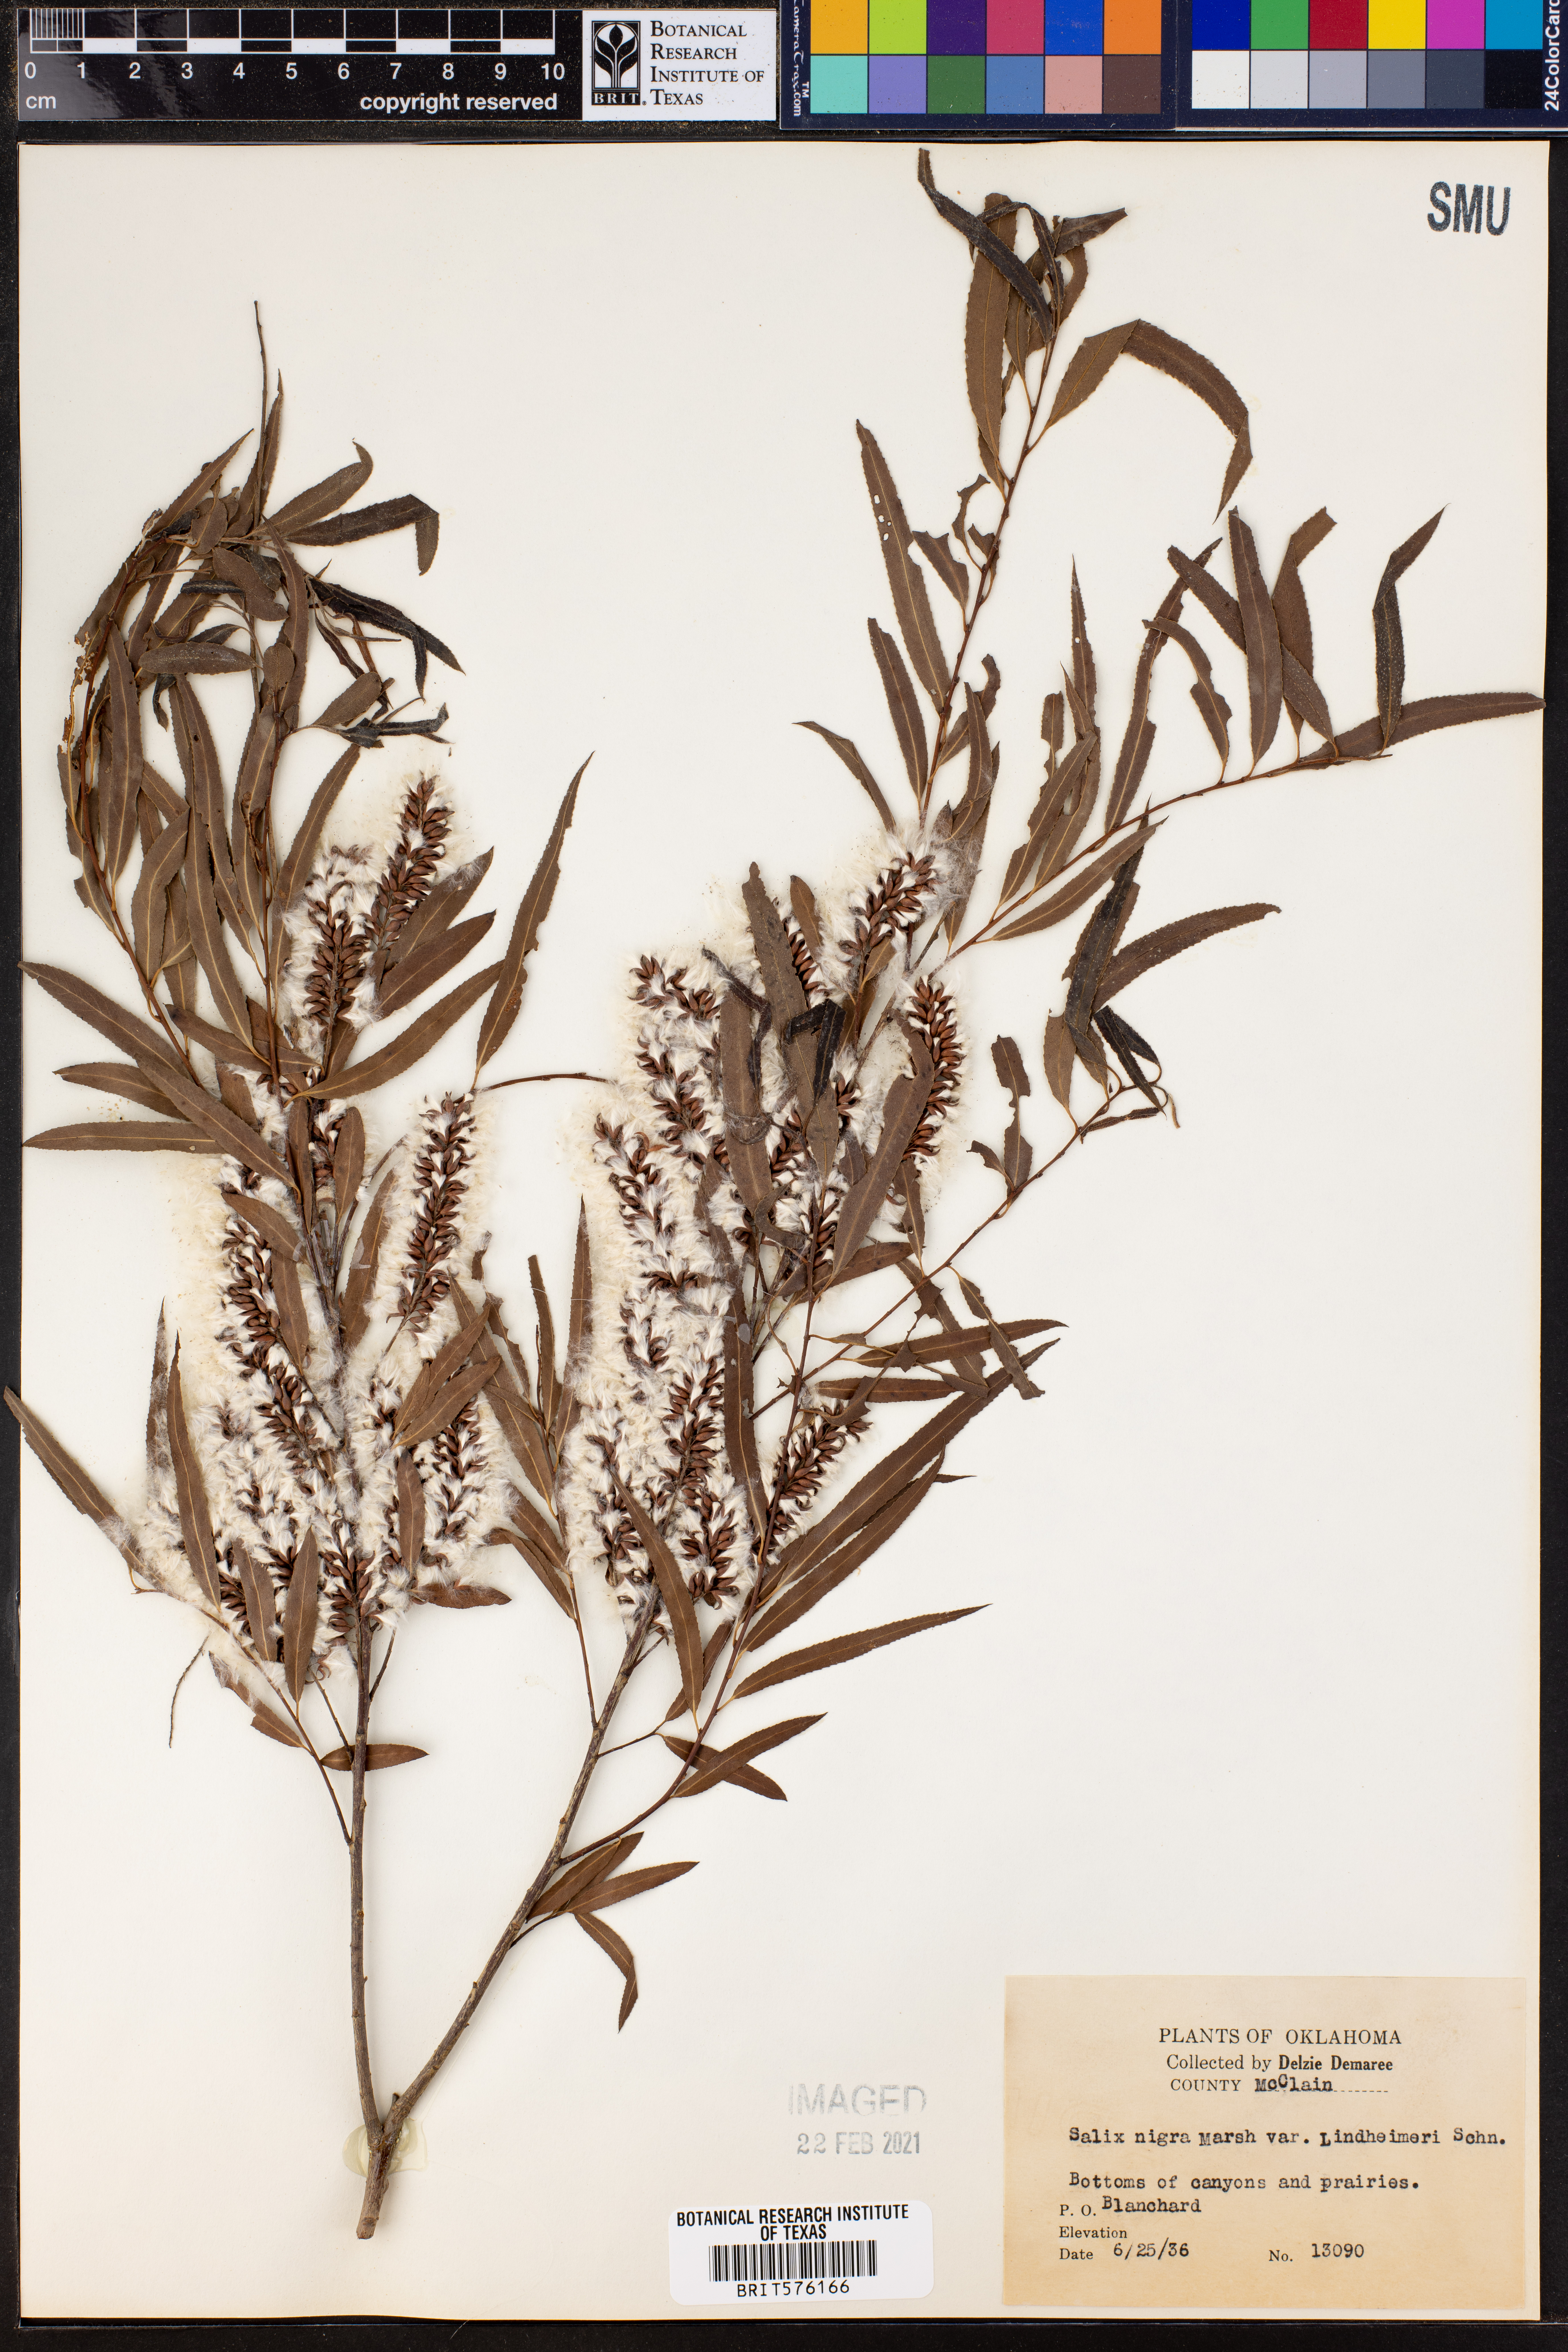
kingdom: Plantae
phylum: Tracheophyta
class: Magnoliopsida
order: Malpighiales
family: Salicaceae
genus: Salix
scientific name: Salix nigra
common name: Black willow
